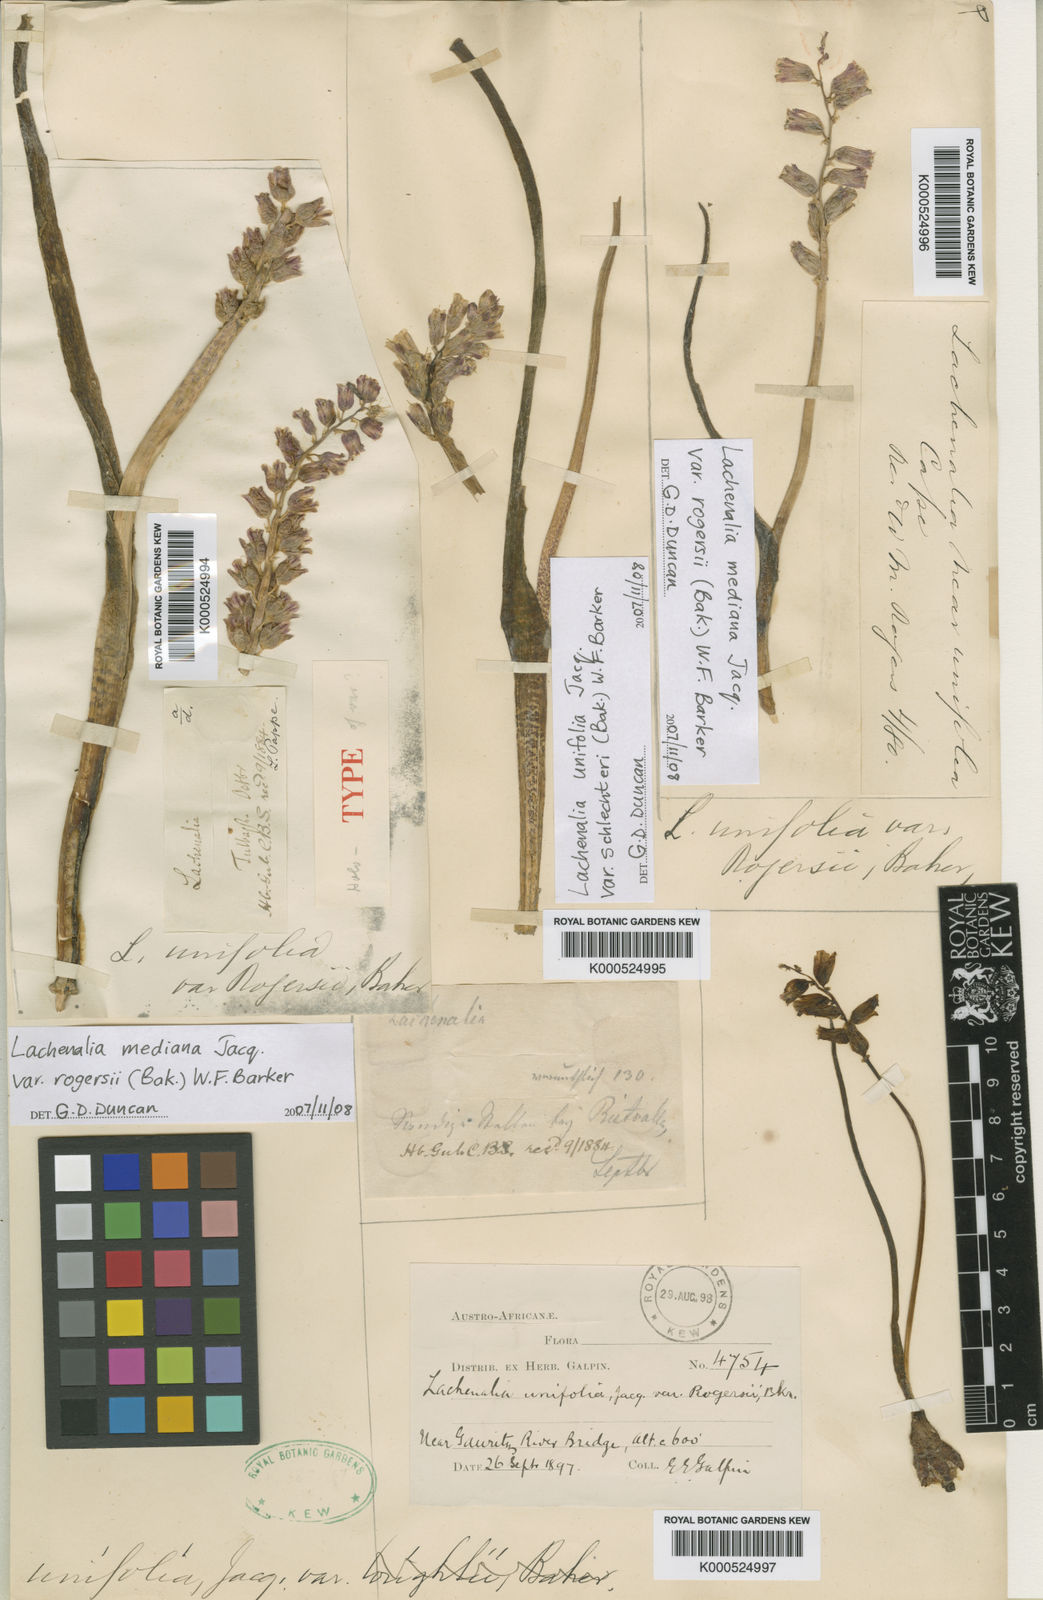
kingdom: Plantae
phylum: Tracheophyta
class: Liliopsida
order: Asparagales
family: Asparagaceae
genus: Lachenalia
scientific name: Lachenalia mediana
